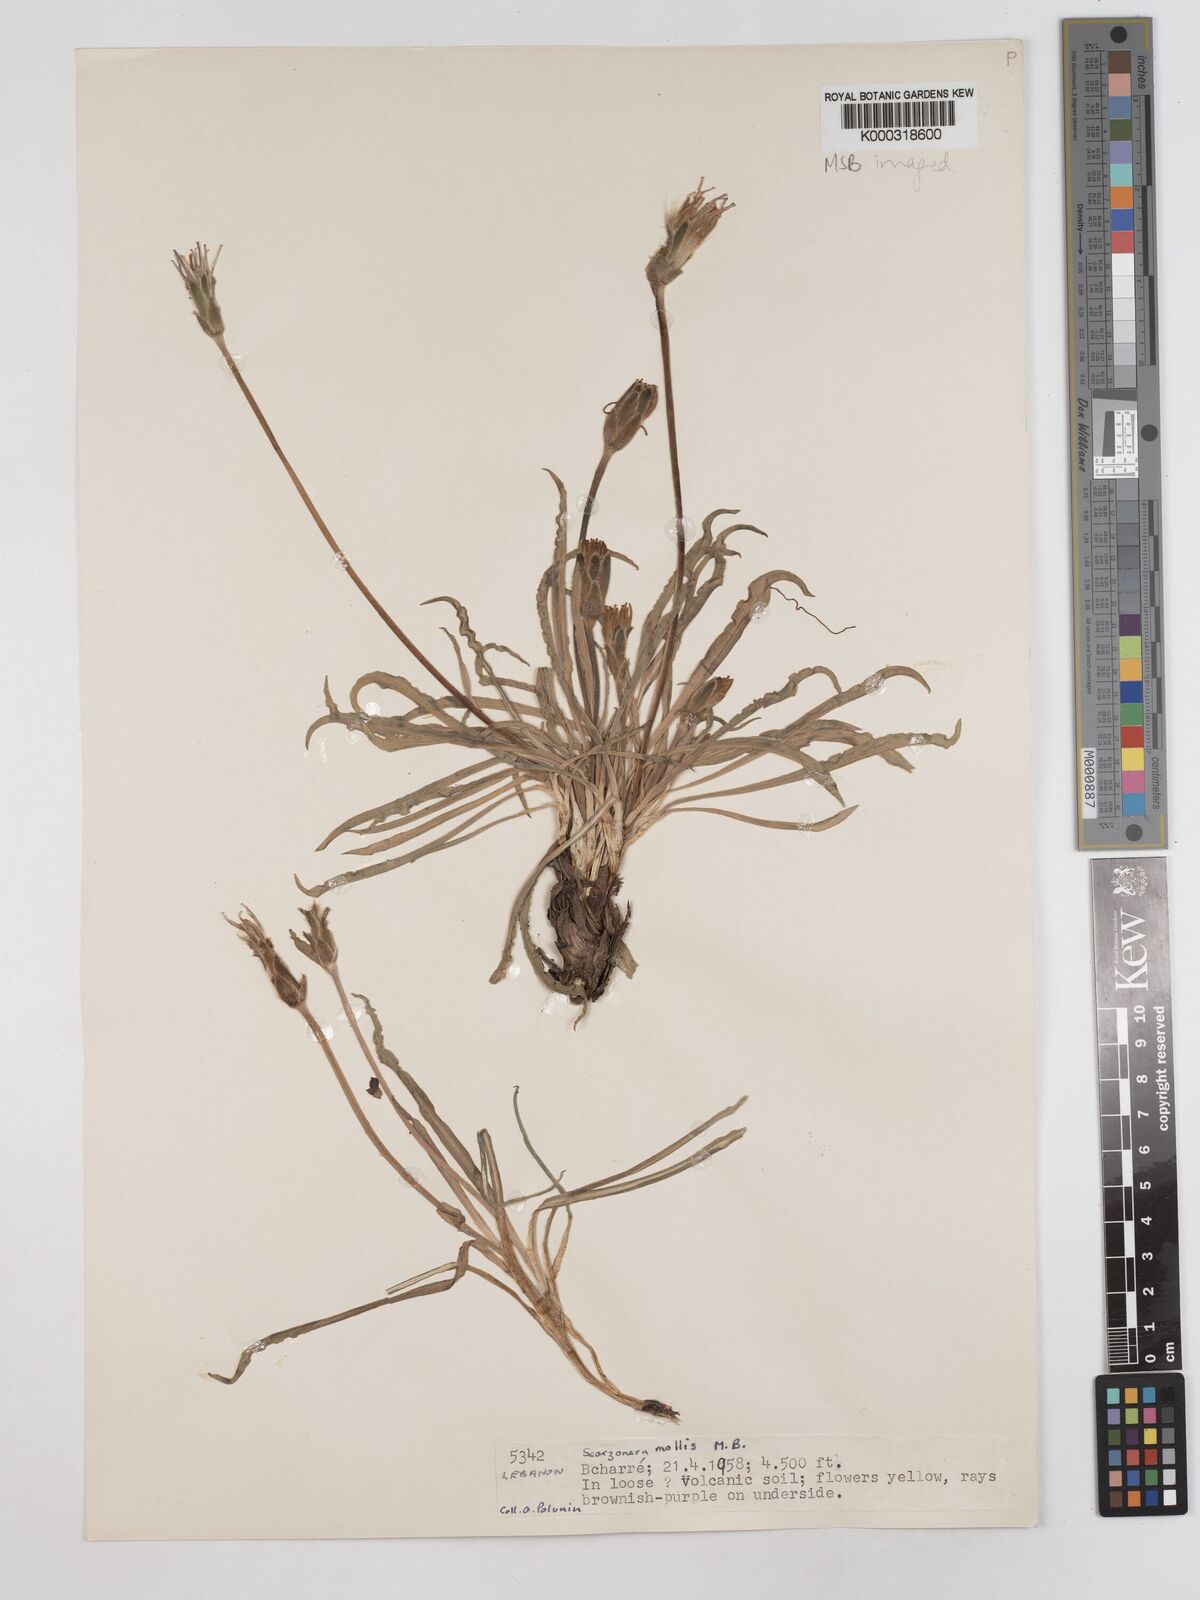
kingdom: Plantae
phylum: Tracheophyta
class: Magnoliopsida
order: Asterales
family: Asteraceae
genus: Candollea
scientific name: Candollea mollis
